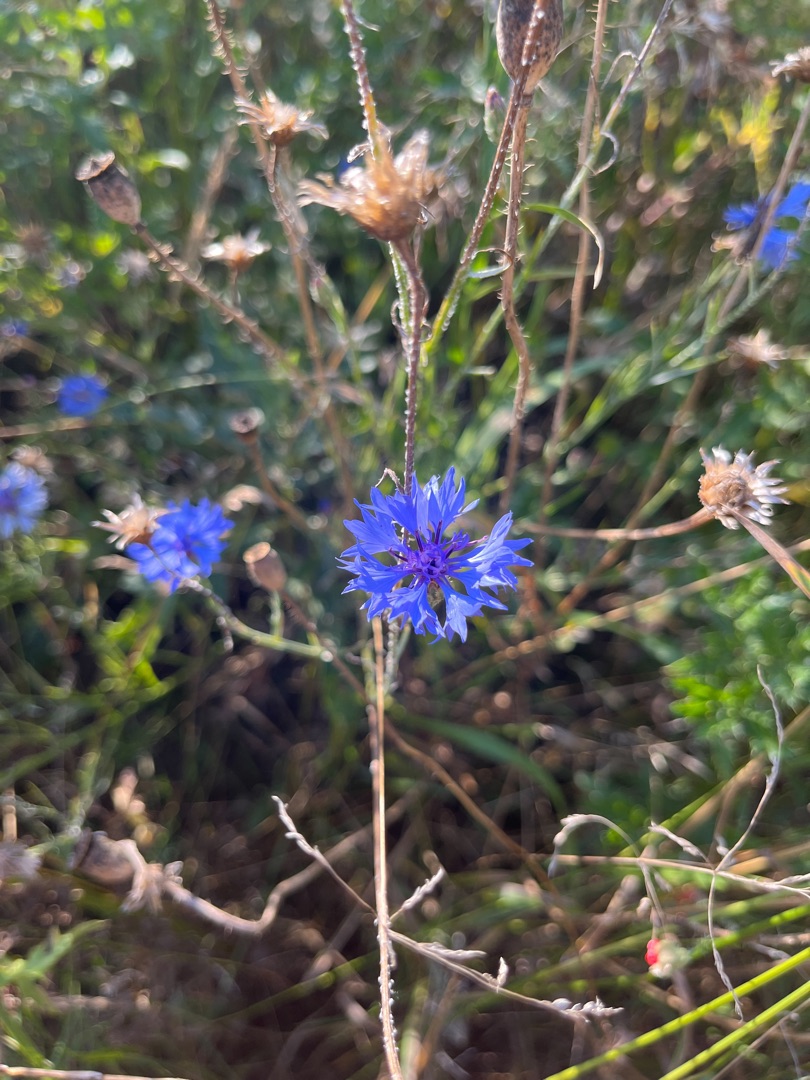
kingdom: Plantae
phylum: Tracheophyta
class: Magnoliopsida
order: Asterales
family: Asteraceae
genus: Centaurea
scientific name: Centaurea cyanus
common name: Kornblomst
